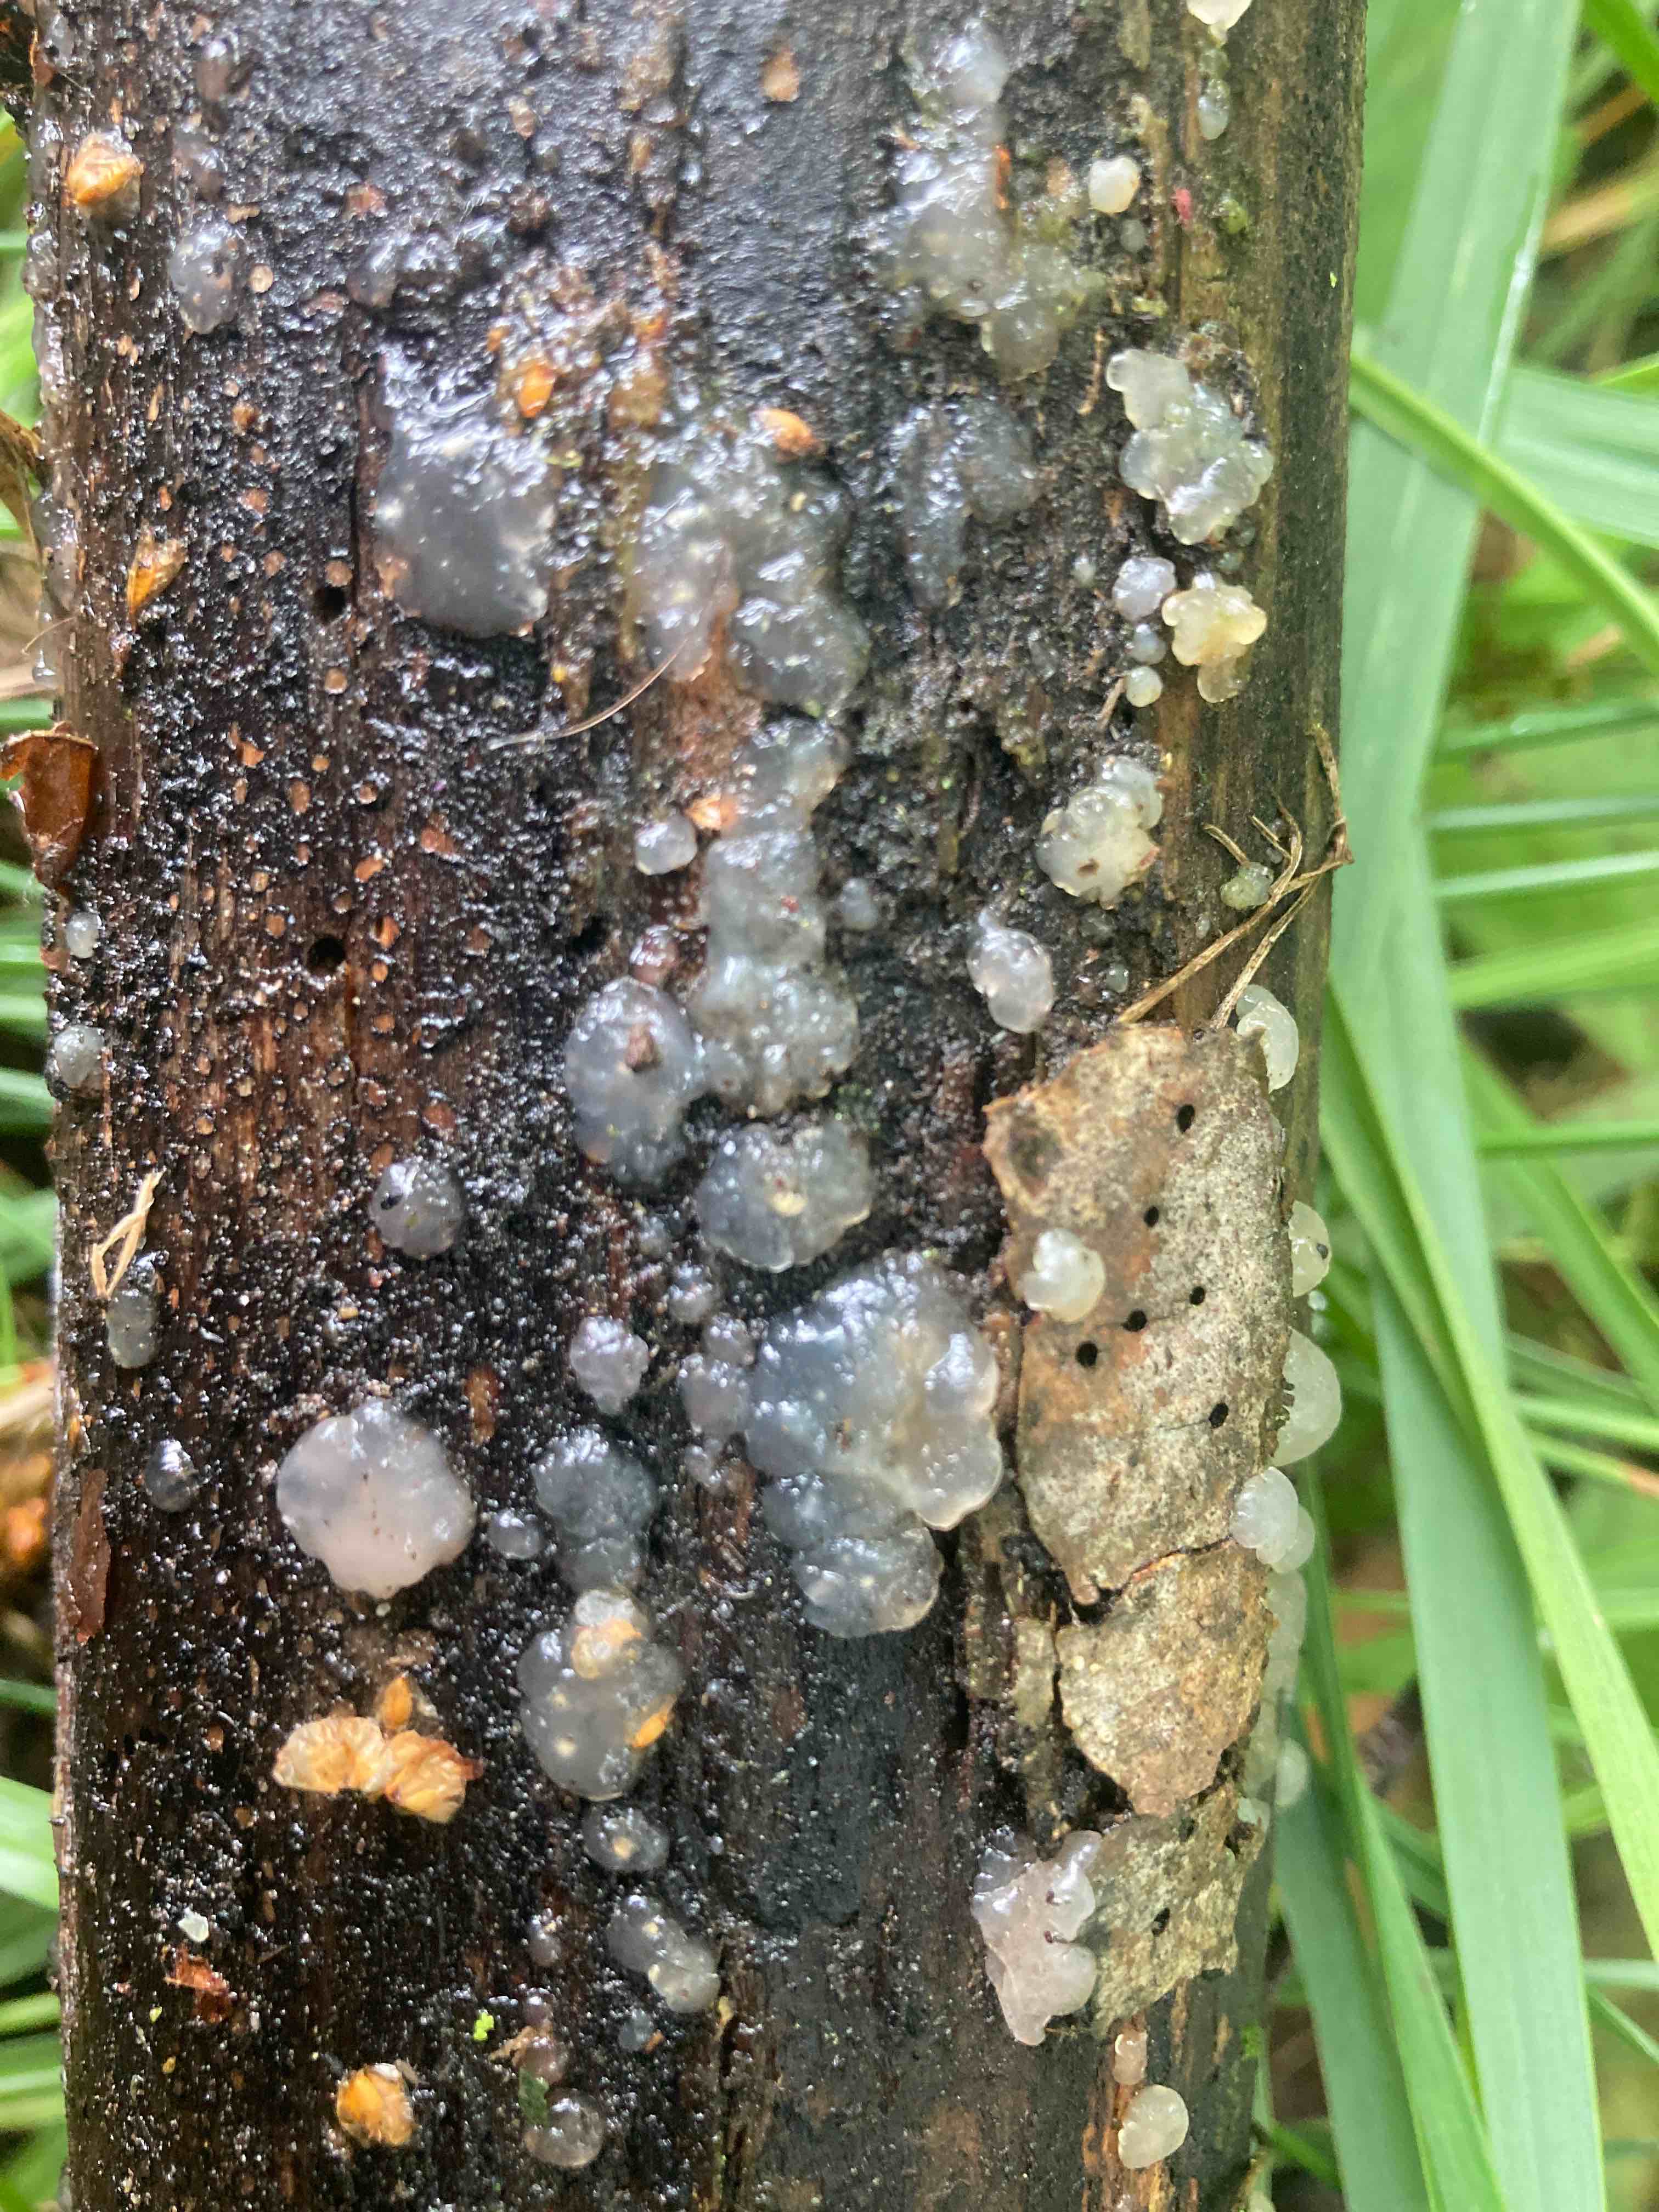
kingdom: Fungi
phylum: Basidiomycota
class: Agaricomycetes
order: Auriculariales
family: Hyaloriaceae
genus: Myxarium
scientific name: Myxarium nucleatum
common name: klar bævretop
